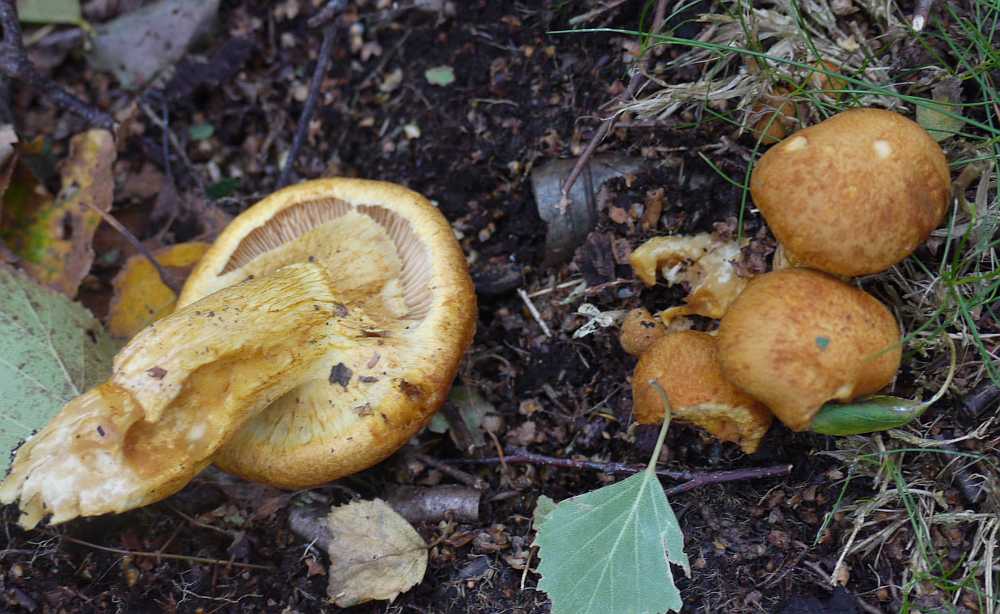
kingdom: Fungi
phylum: Basidiomycota
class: Agaricomycetes
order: Agaricales
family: Hymenogastraceae
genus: Gymnopilus
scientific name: Gymnopilus spectabilis
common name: fibret flammehat
